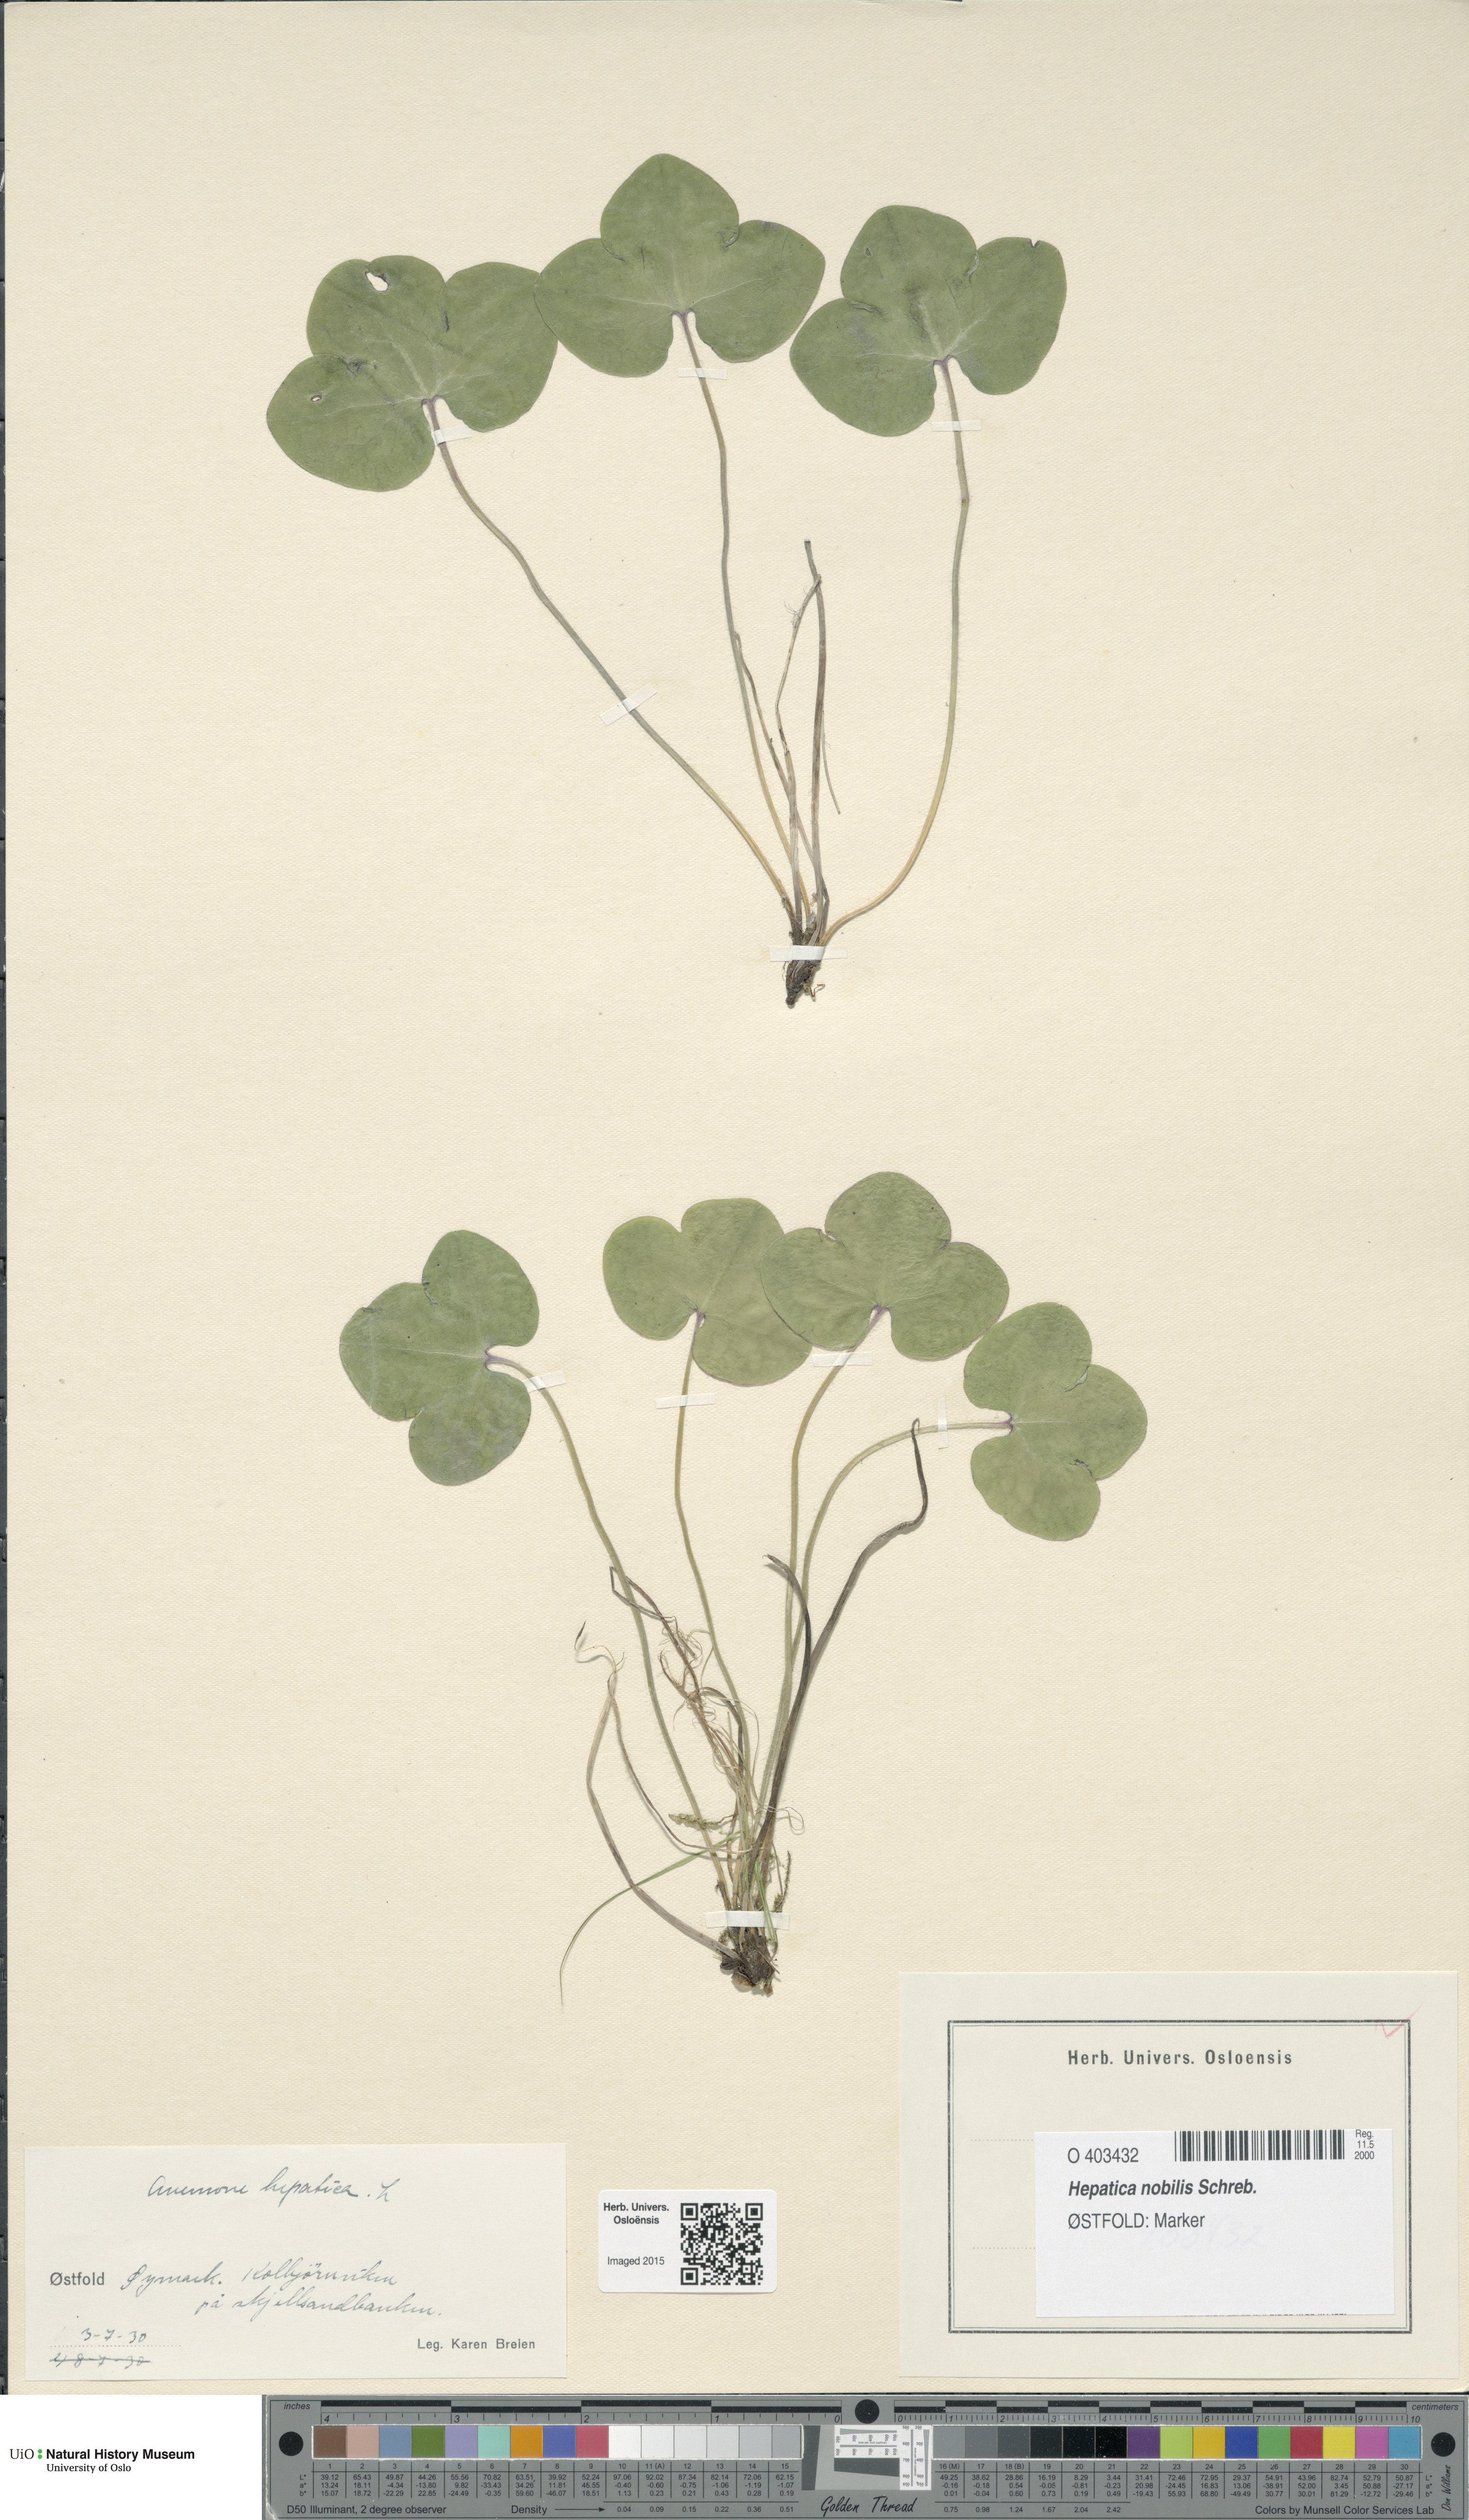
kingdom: Plantae
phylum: Tracheophyta
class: Magnoliopsida
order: Ranunculales
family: Ranunculaceae
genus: Hepatica
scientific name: Hepatica nobilis
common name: Liverleaf
